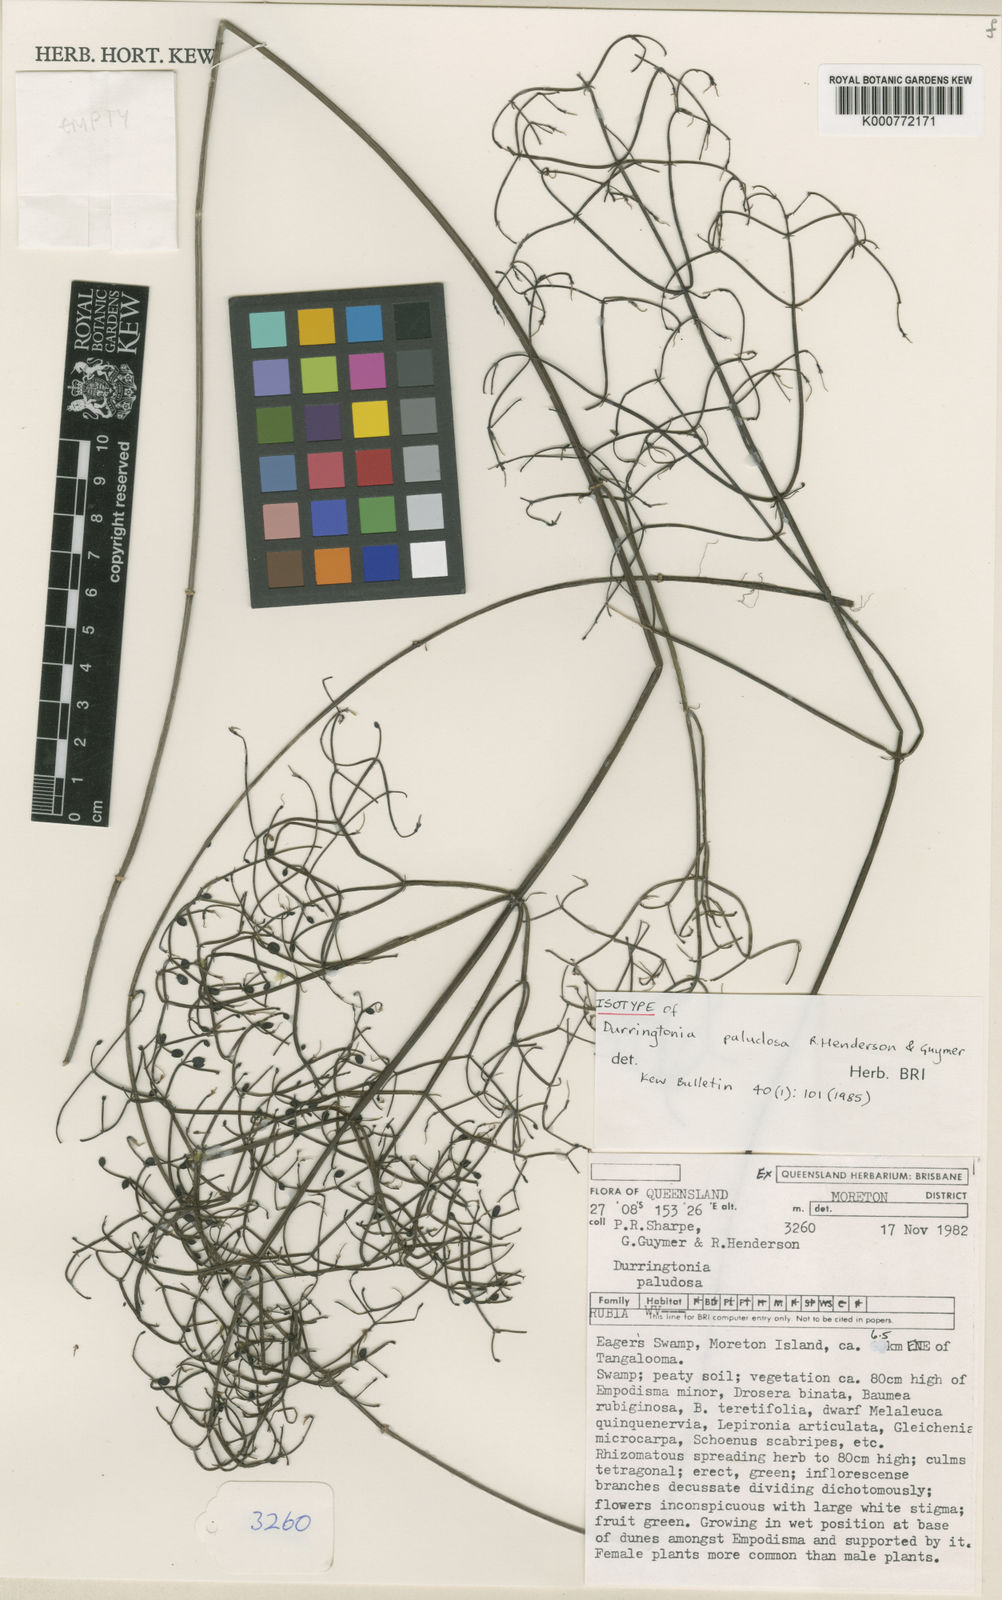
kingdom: Plantae
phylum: Tracheophyta
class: Magnoliopsida
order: Gentianales
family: Rubiaceae
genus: Durringtonia
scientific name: Durringtonia paludosa
